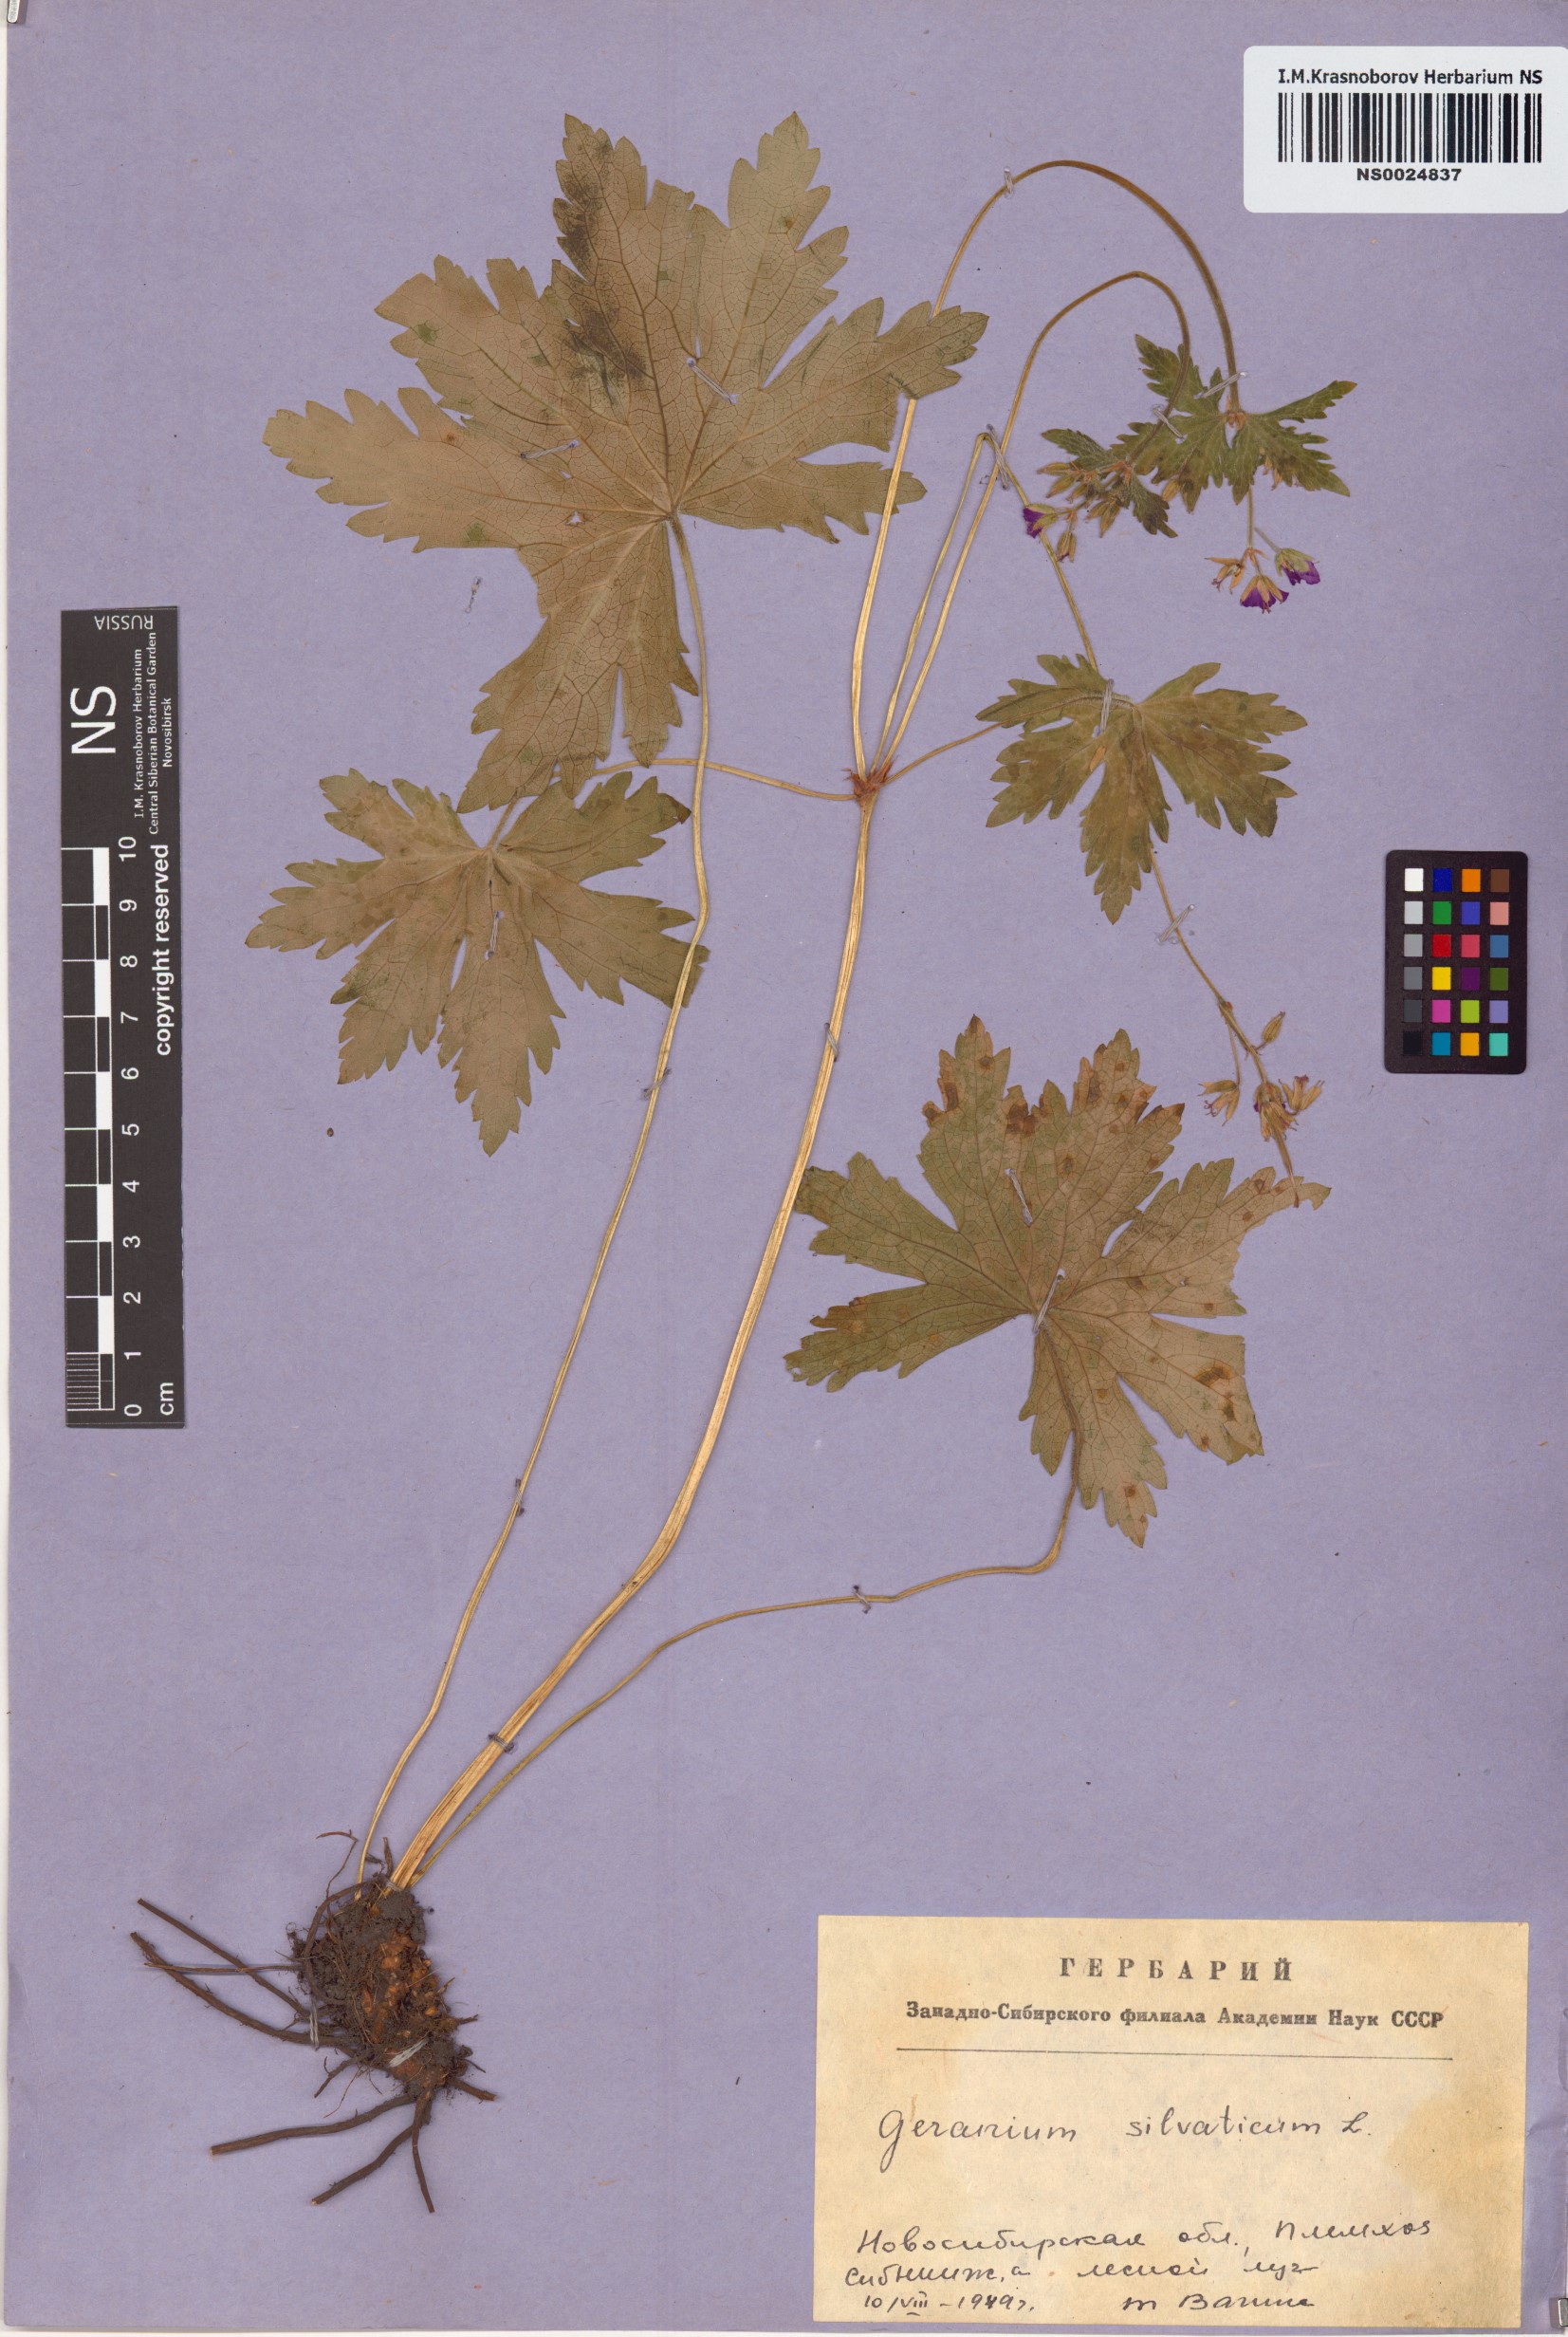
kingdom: Plantae
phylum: Tracheophyta
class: Magnoliopsida
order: Geraniales
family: Geraniaceae
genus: Geranium
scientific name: Geranium sylvaticum
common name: Wood crane's-bill
